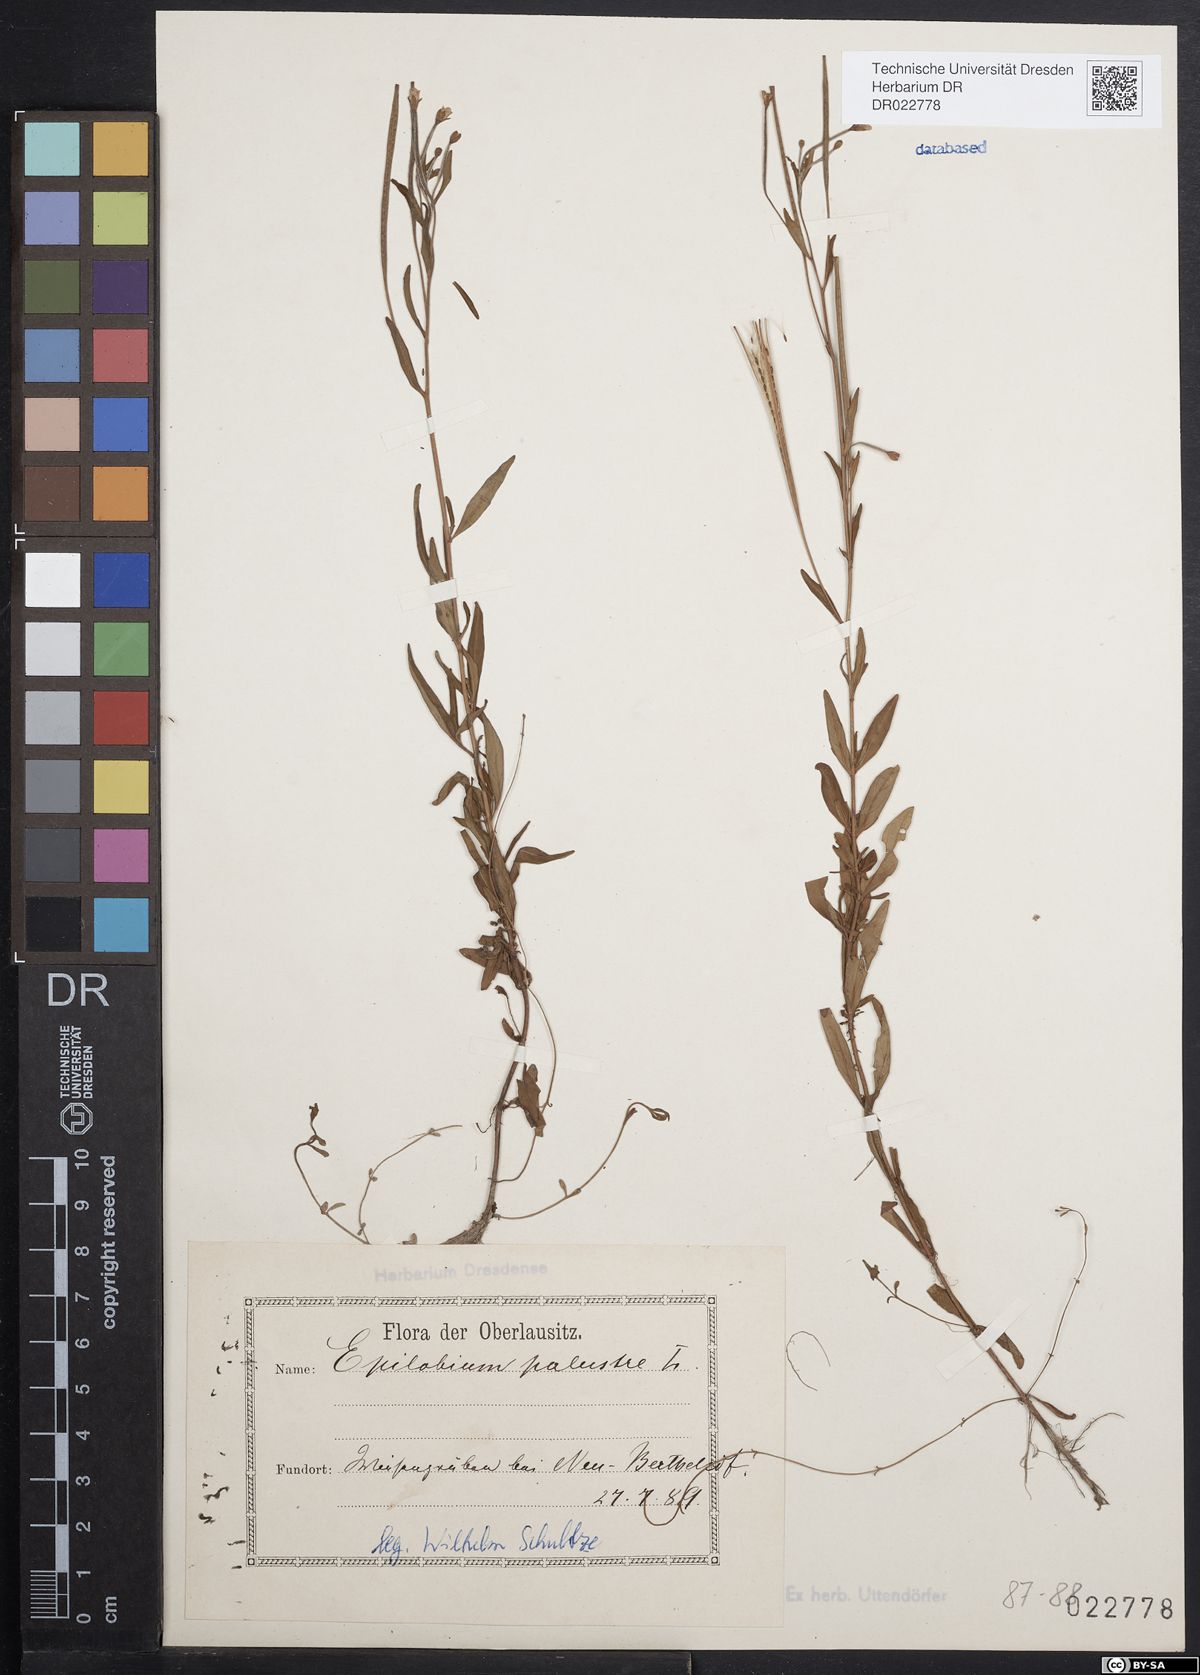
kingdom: Plantae
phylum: Tracheophyta
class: Magnoliopsida
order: Myrtales
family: Onagraceae
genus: Epilobium
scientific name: Epilobium palustre
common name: Marsh willowherb
